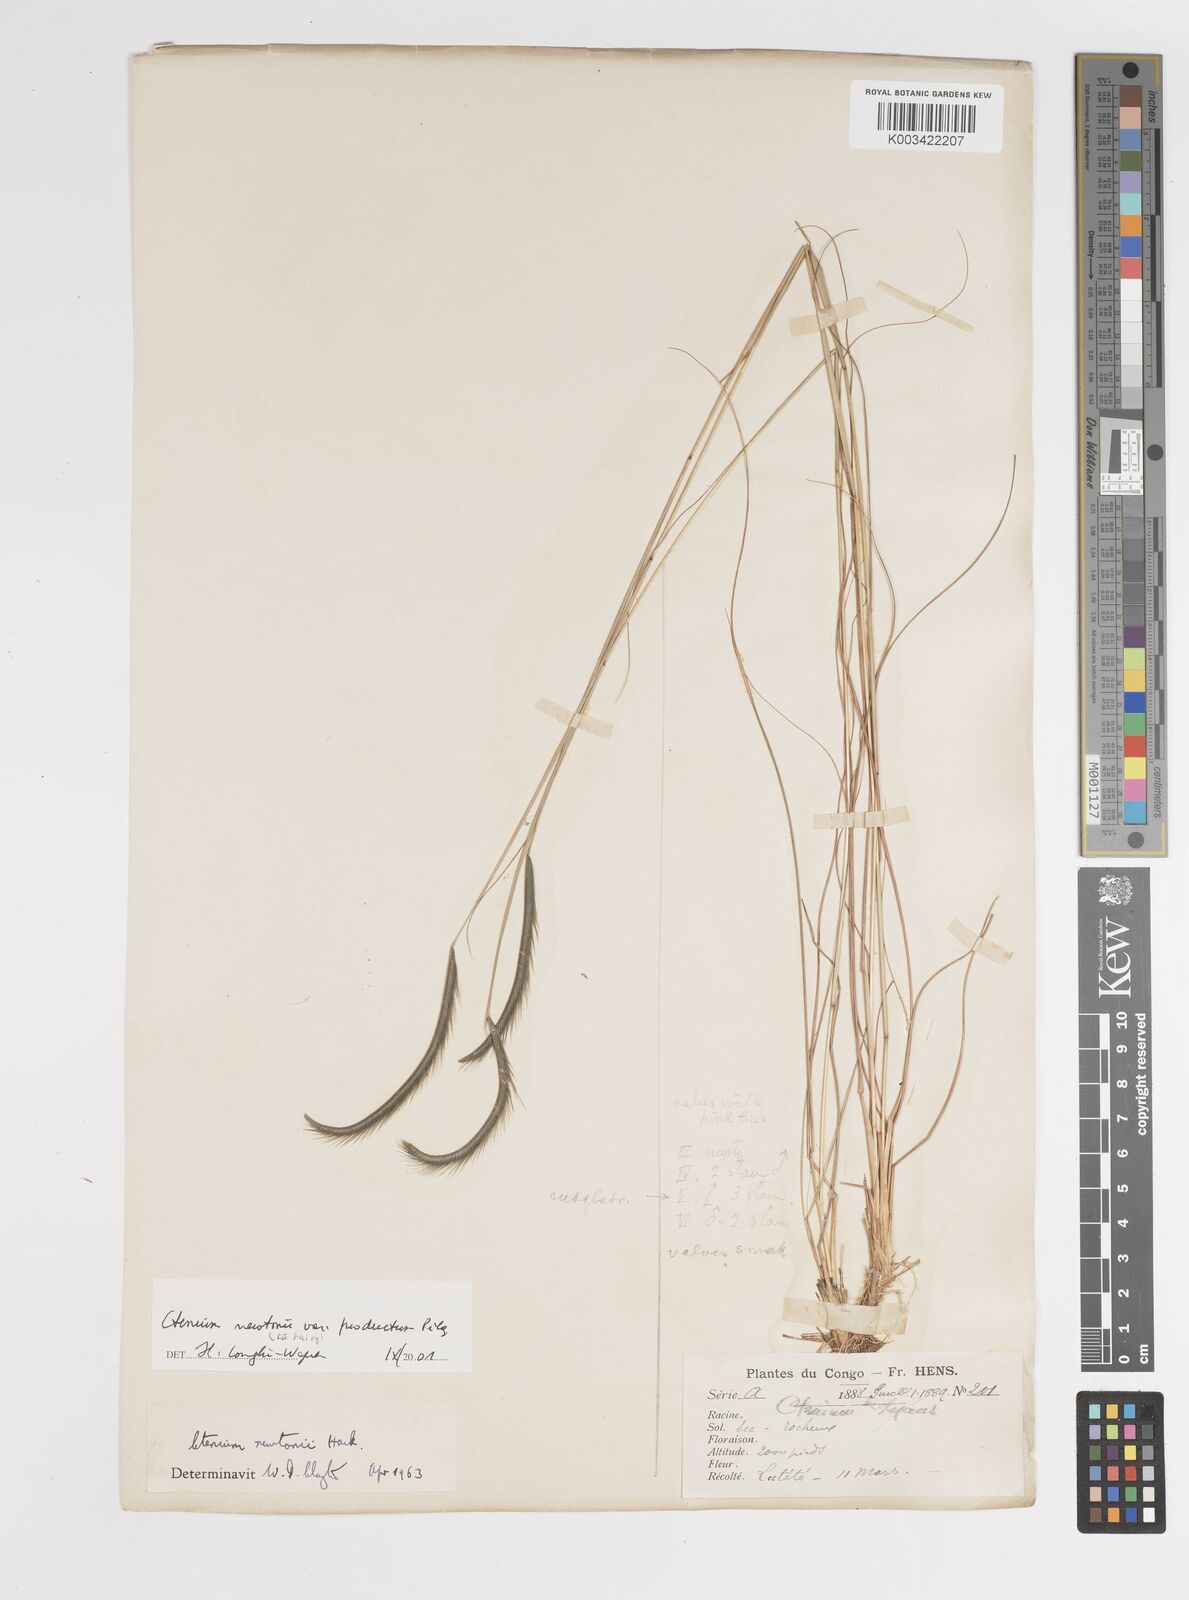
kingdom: Plantae
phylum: Tracheophyta
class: Liliopsida
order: Poales
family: Poaceae
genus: Ctenium
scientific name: Ctenium newtonii
